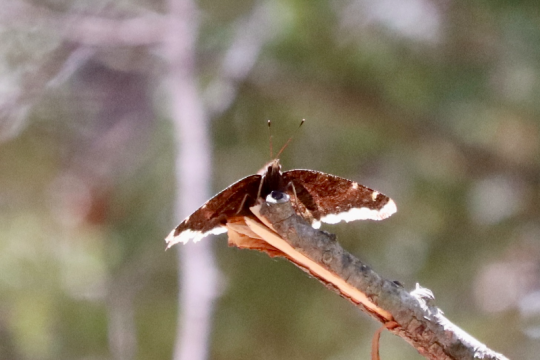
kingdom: Animalia
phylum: Arthropoda
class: Insecta
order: Lepidoptera
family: Nymphalidae
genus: Nymphalis
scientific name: Nymphalis antiopa
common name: Mourning Cloak
